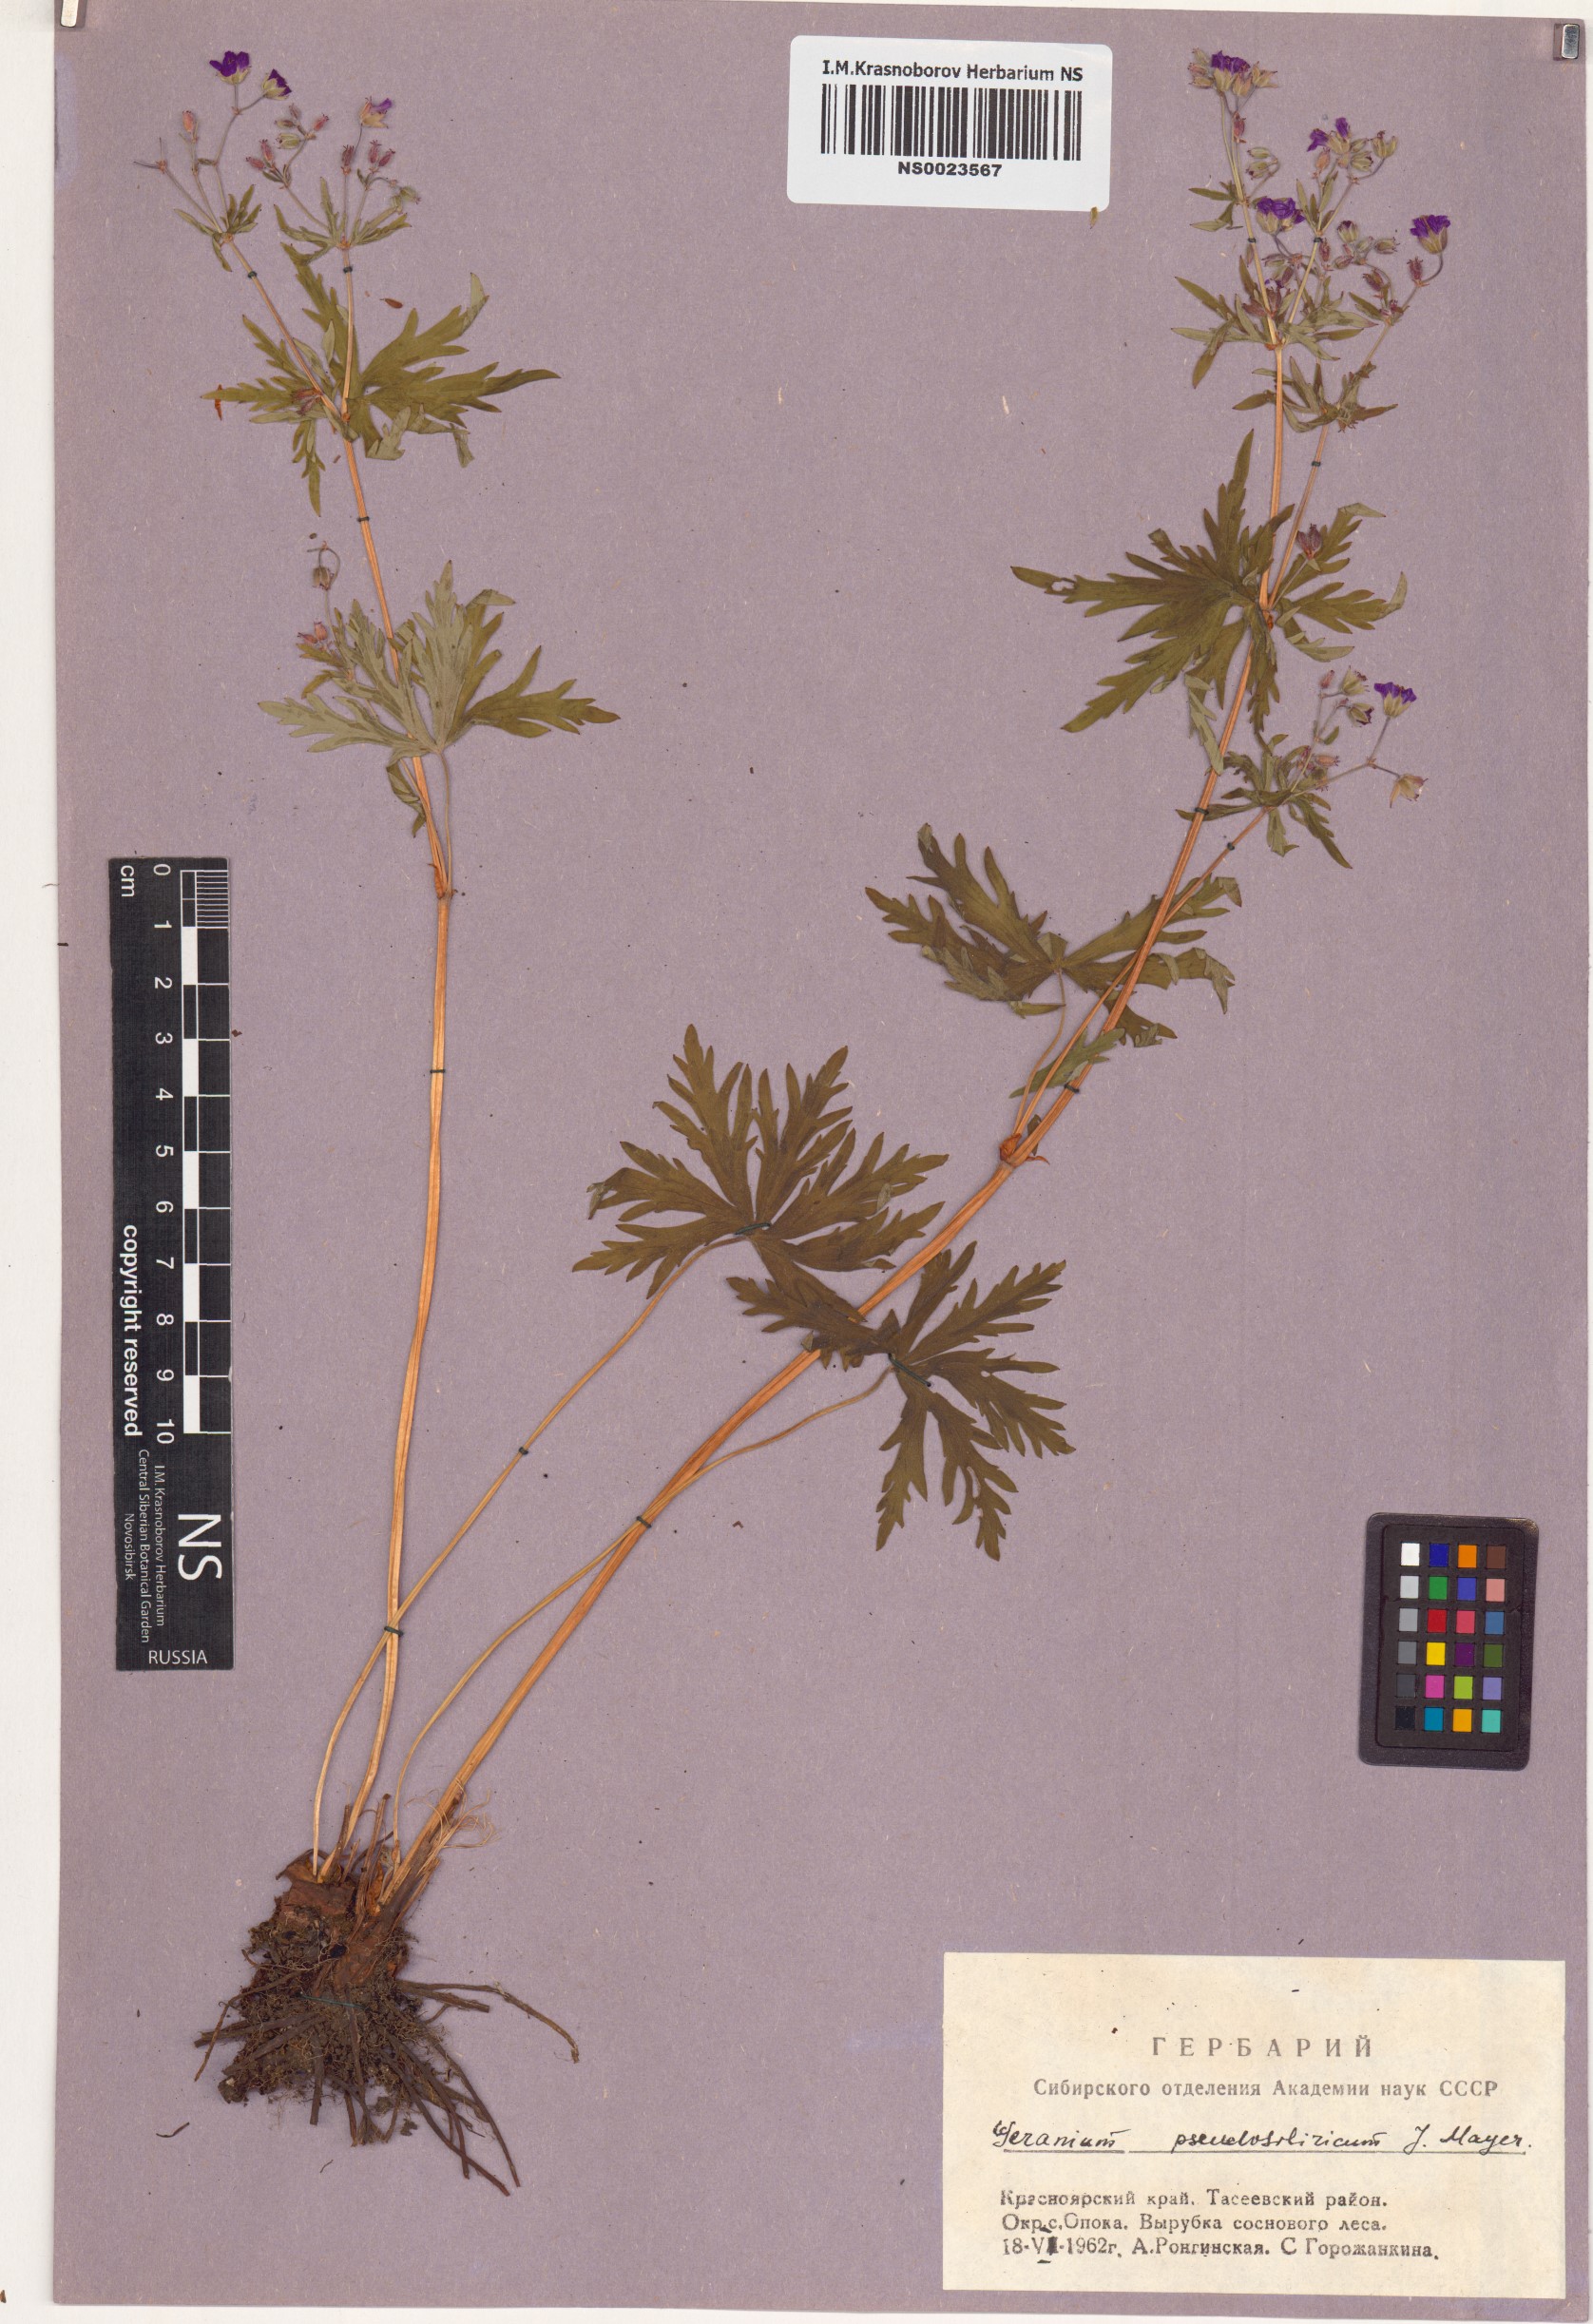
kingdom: Plantae
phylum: Tracheophyta
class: Magnoliopsida
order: Geraniales
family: Geraniaceae
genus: Geranium
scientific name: Geranium pseudosibiricum
